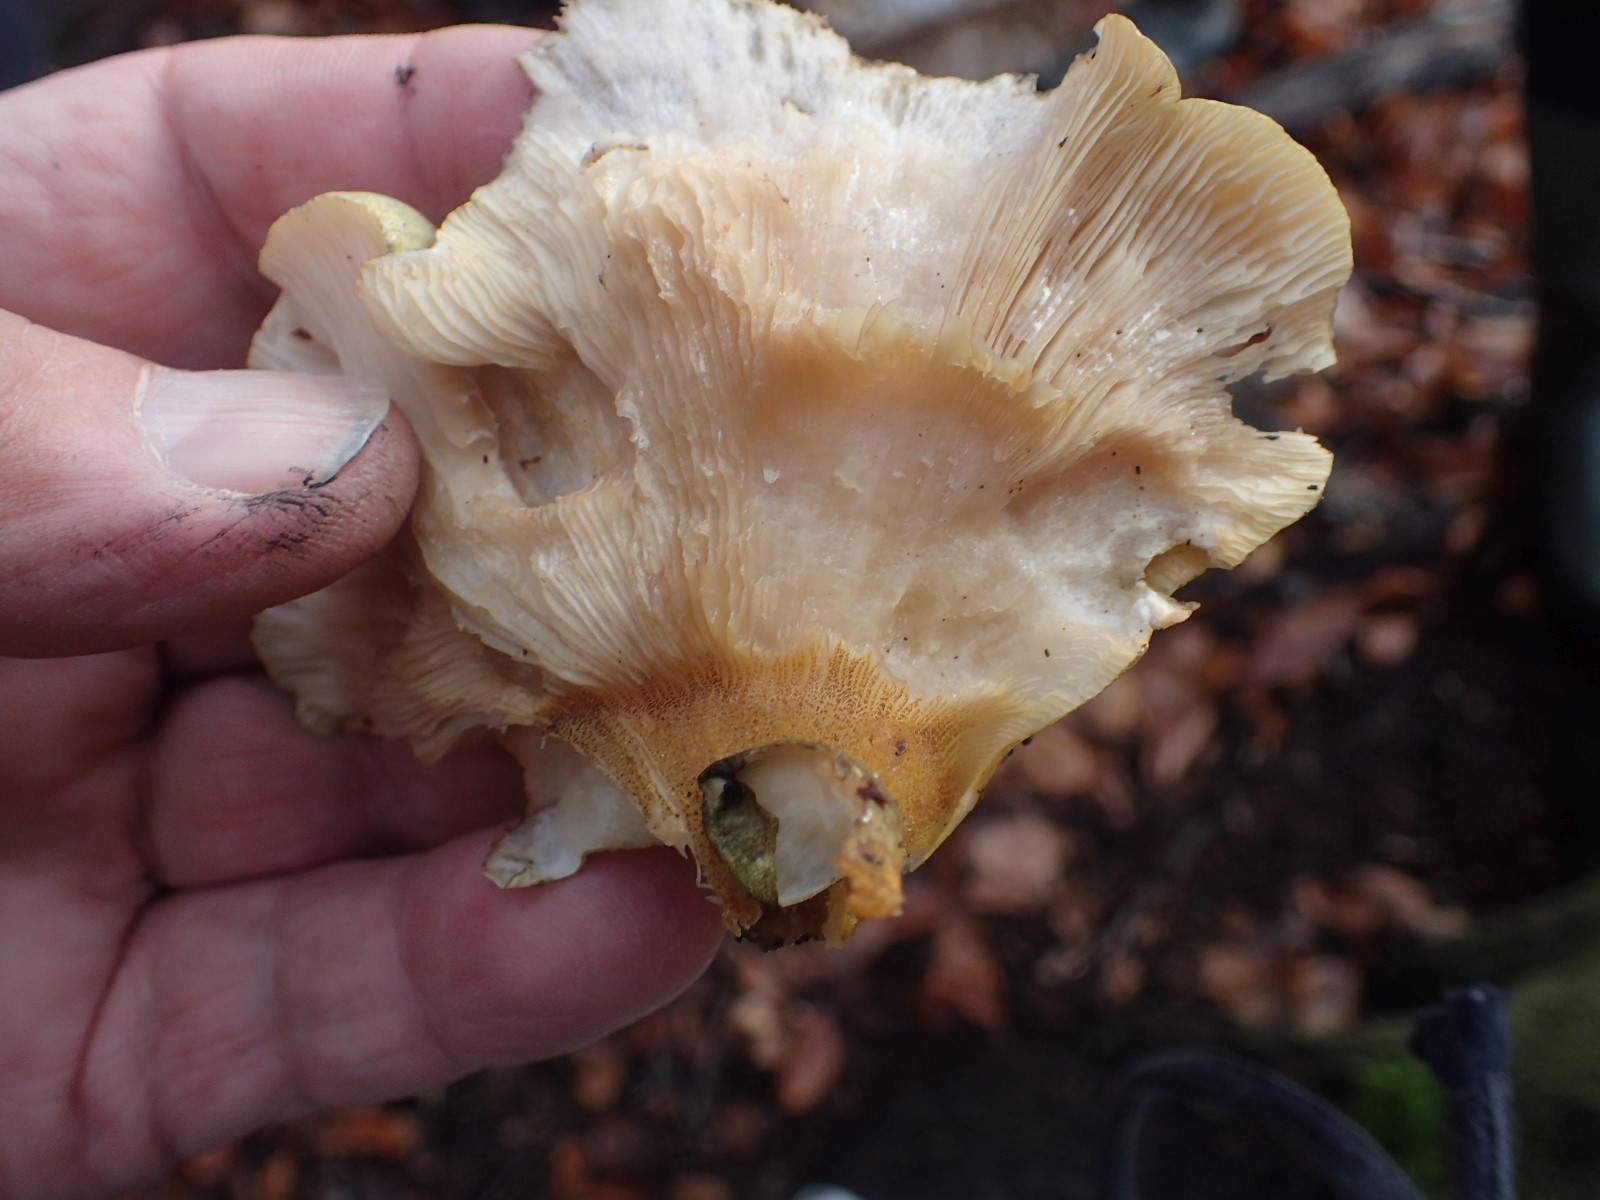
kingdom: Fungi
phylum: Basidiomycota
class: Agaricomycetes
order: Agaricales
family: Sarcomyxaceae
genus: Sarcomyxa
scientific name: Sarcomyxa serotina
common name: gummihat
